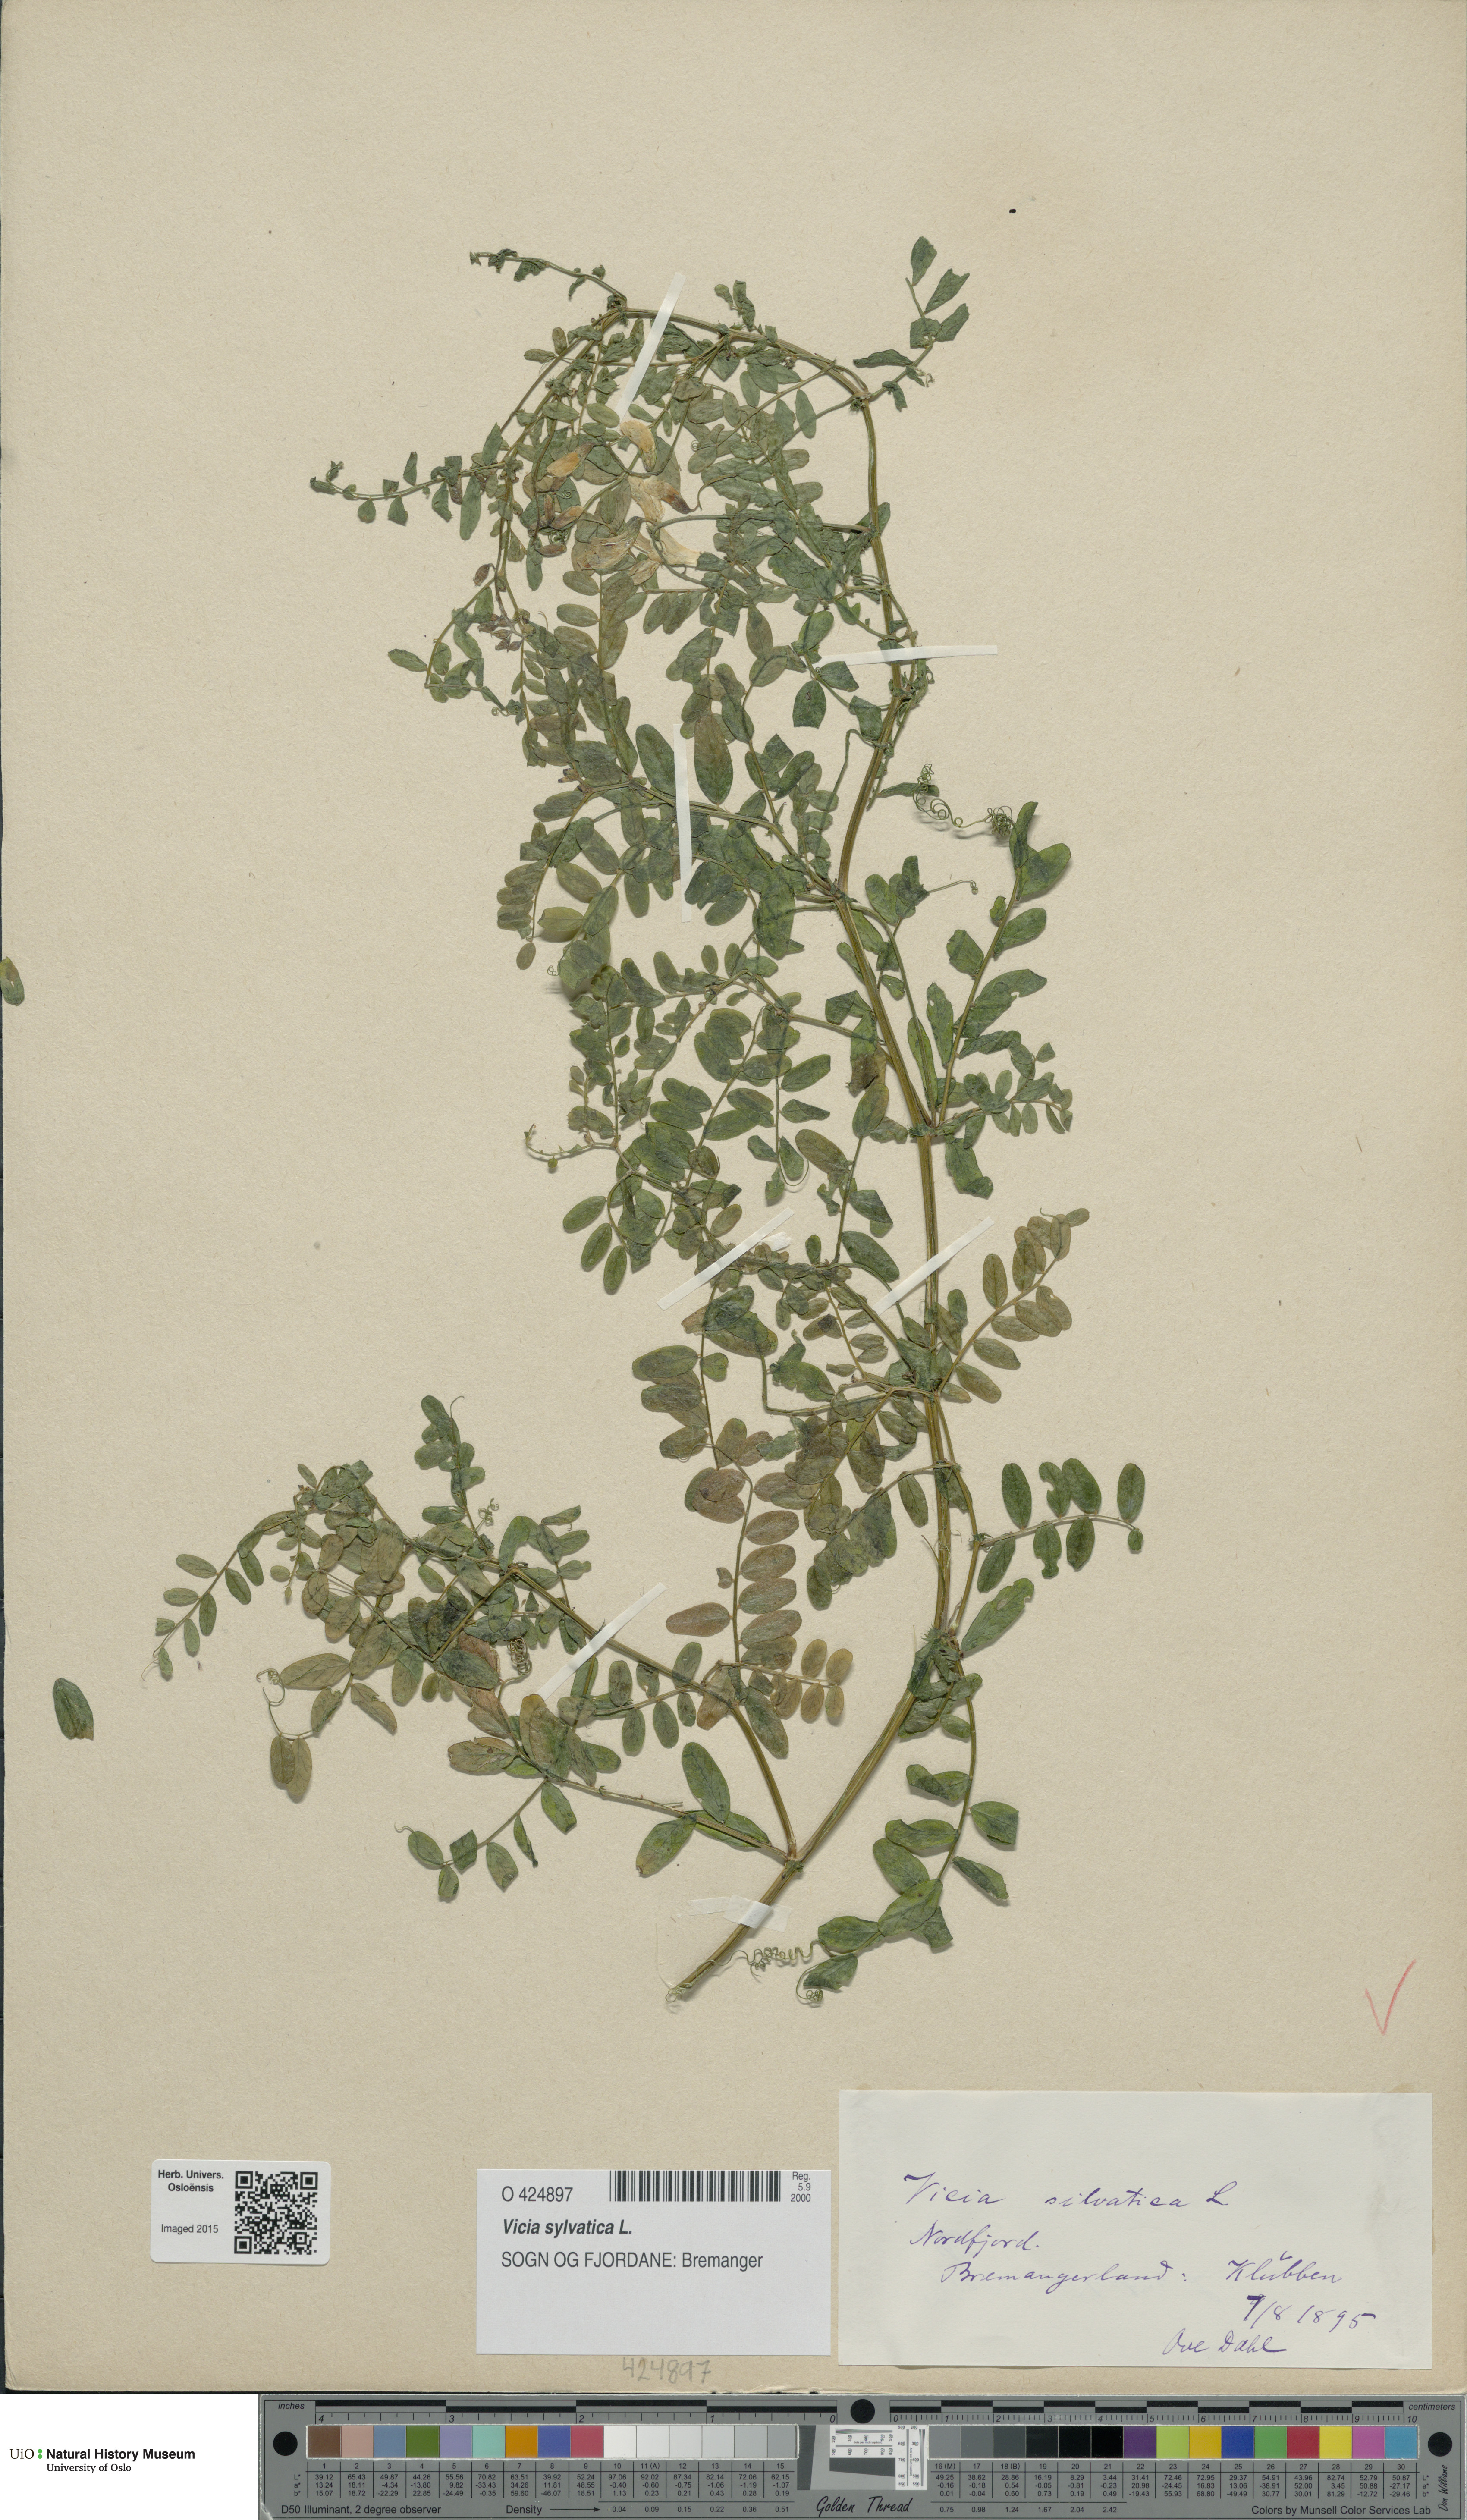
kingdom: Plantae
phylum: Tracheophyta
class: Magnoliopsida
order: Fabales
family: Fabaceae
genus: Vicia
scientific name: Vicia sylvatica
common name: Wood vetch
